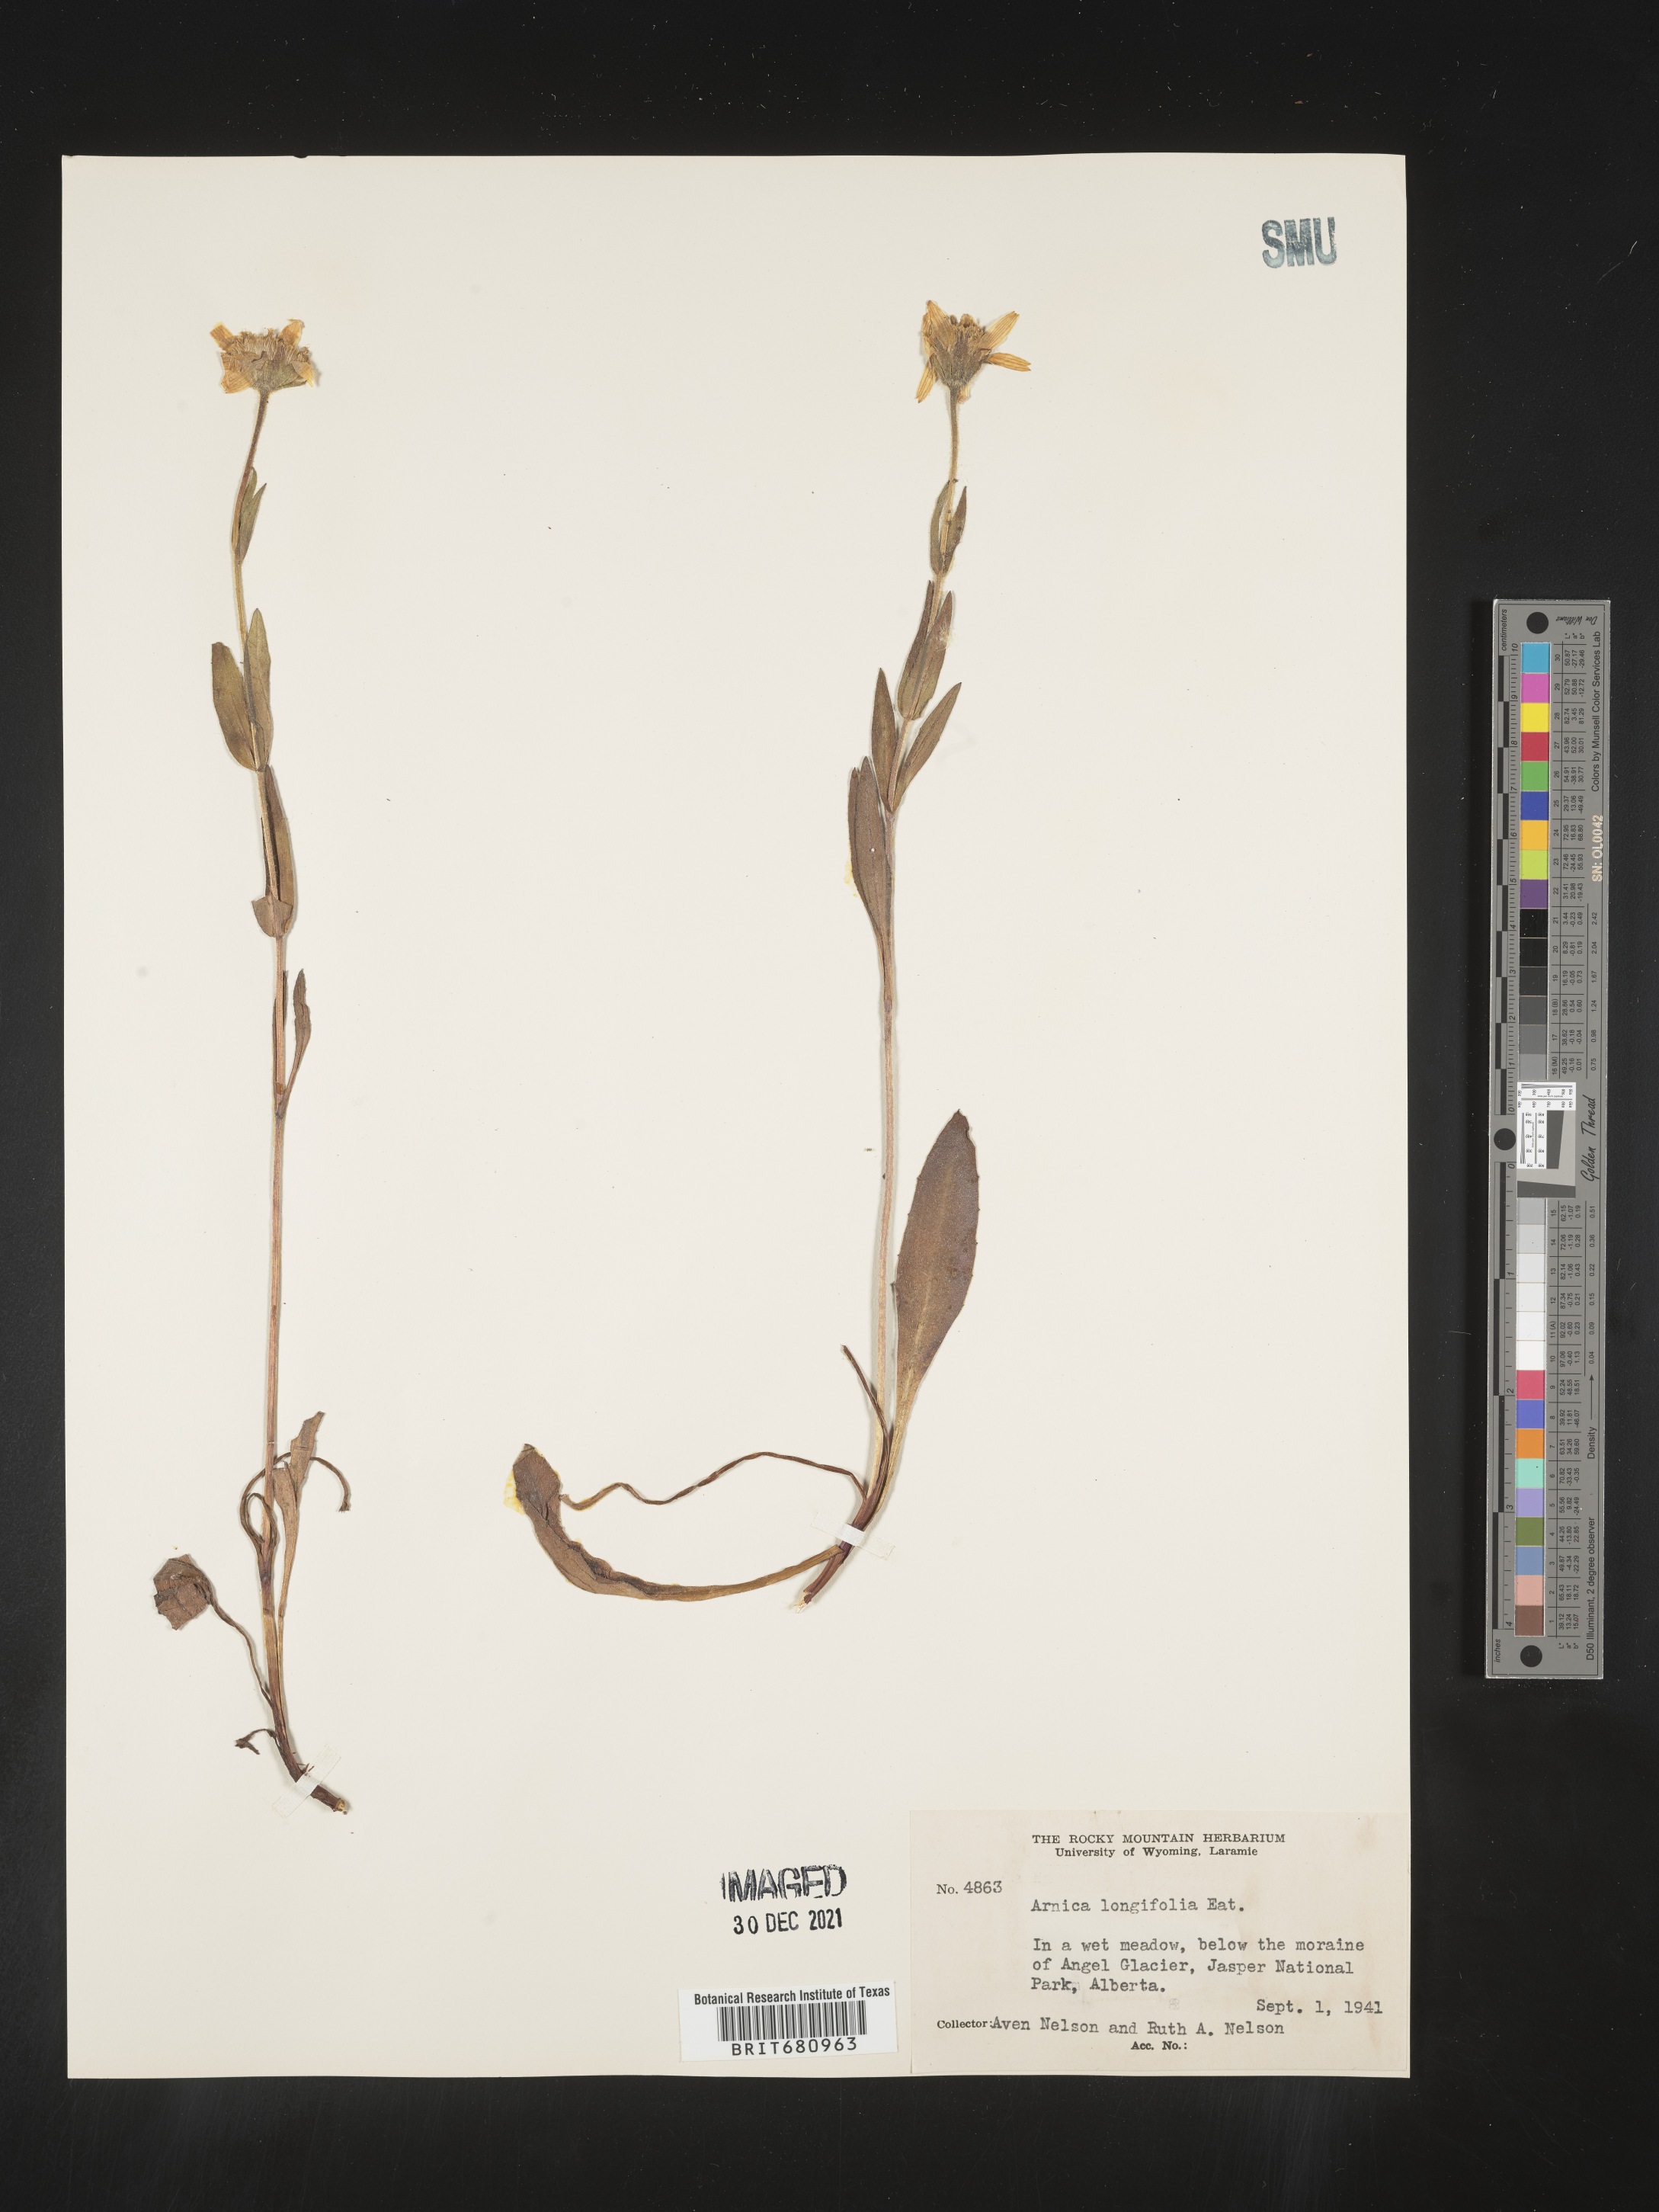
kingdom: Plantae
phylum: Tracheophyta
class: Magnoliopsida
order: Asterales
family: Asteraceae
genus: Arnica
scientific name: Arnica longifolia
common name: Spear-leaf arnica
